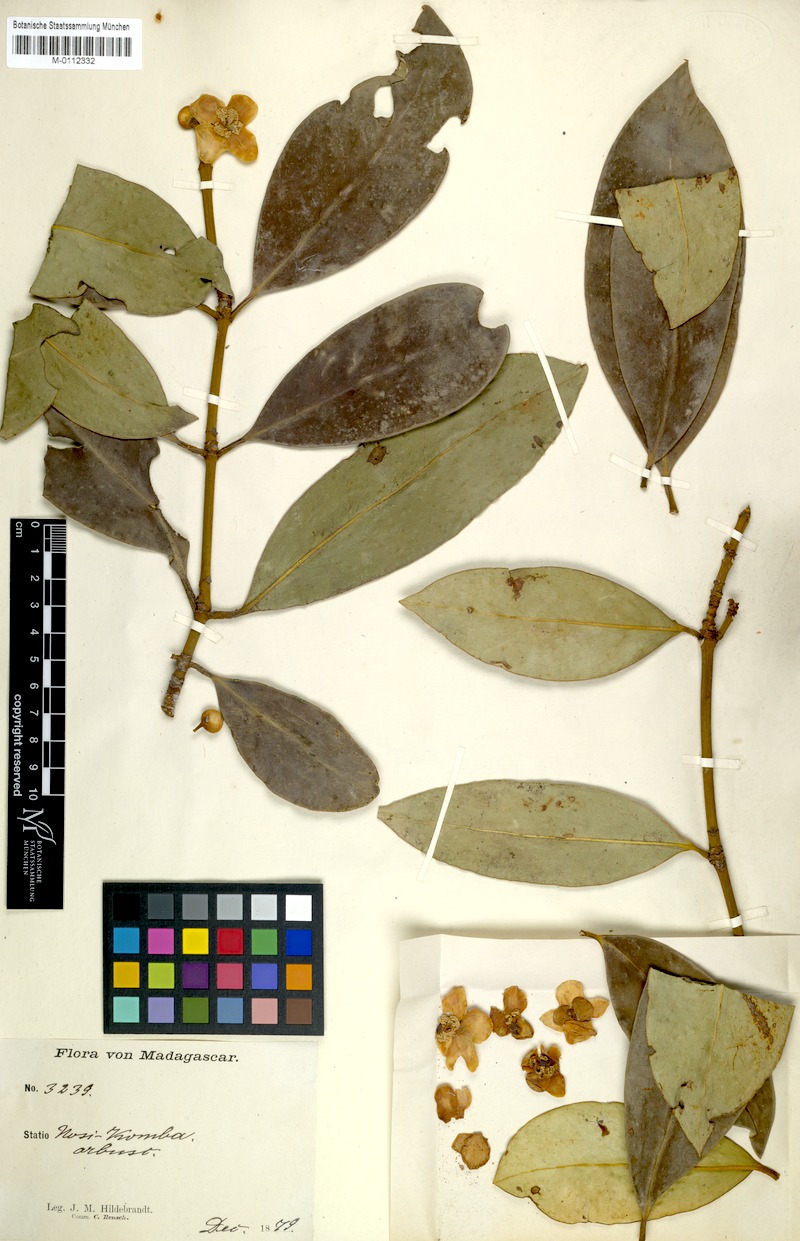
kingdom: Plantae
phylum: Tracheophyta
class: Magnoliopsida
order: Malpighiales
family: Clusiaceae
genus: Garcinia
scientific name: Garcinia decipiens
